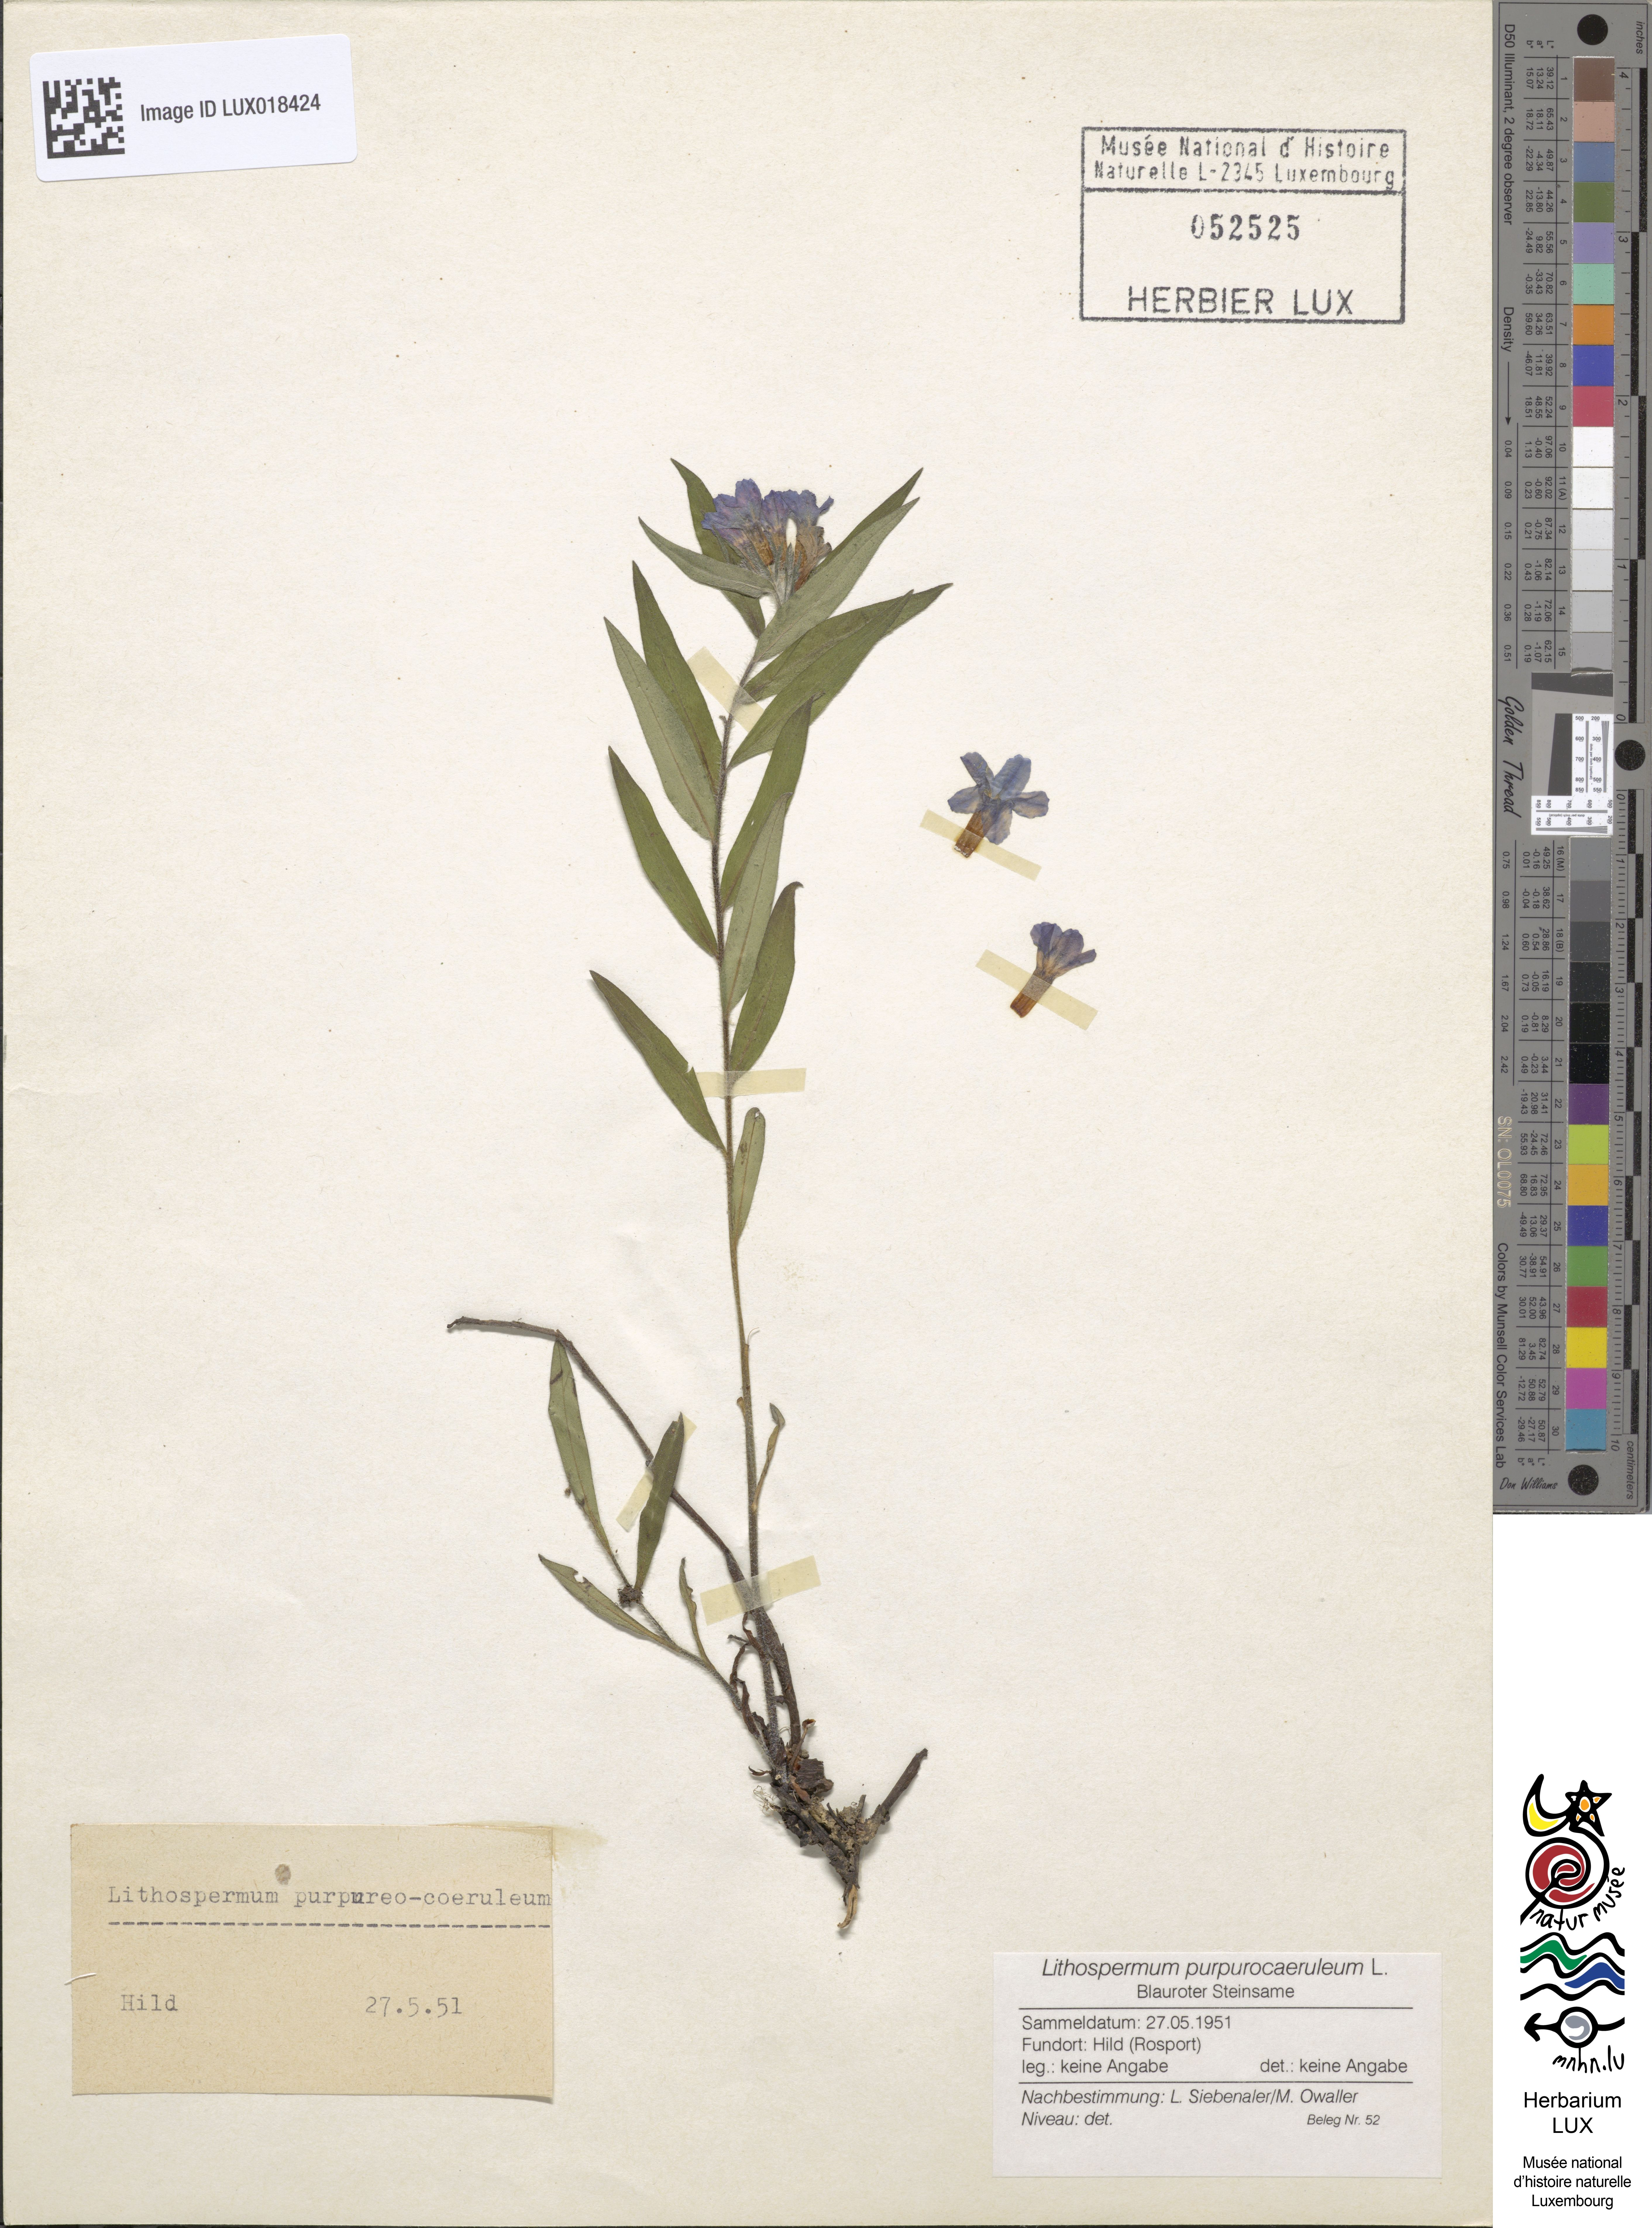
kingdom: Plantae
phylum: Tracheophyta
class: Magnoliopsida
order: Boraginales
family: Boraginaceae
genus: Aegonychon
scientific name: Aegonychon purpurocaeruleum
